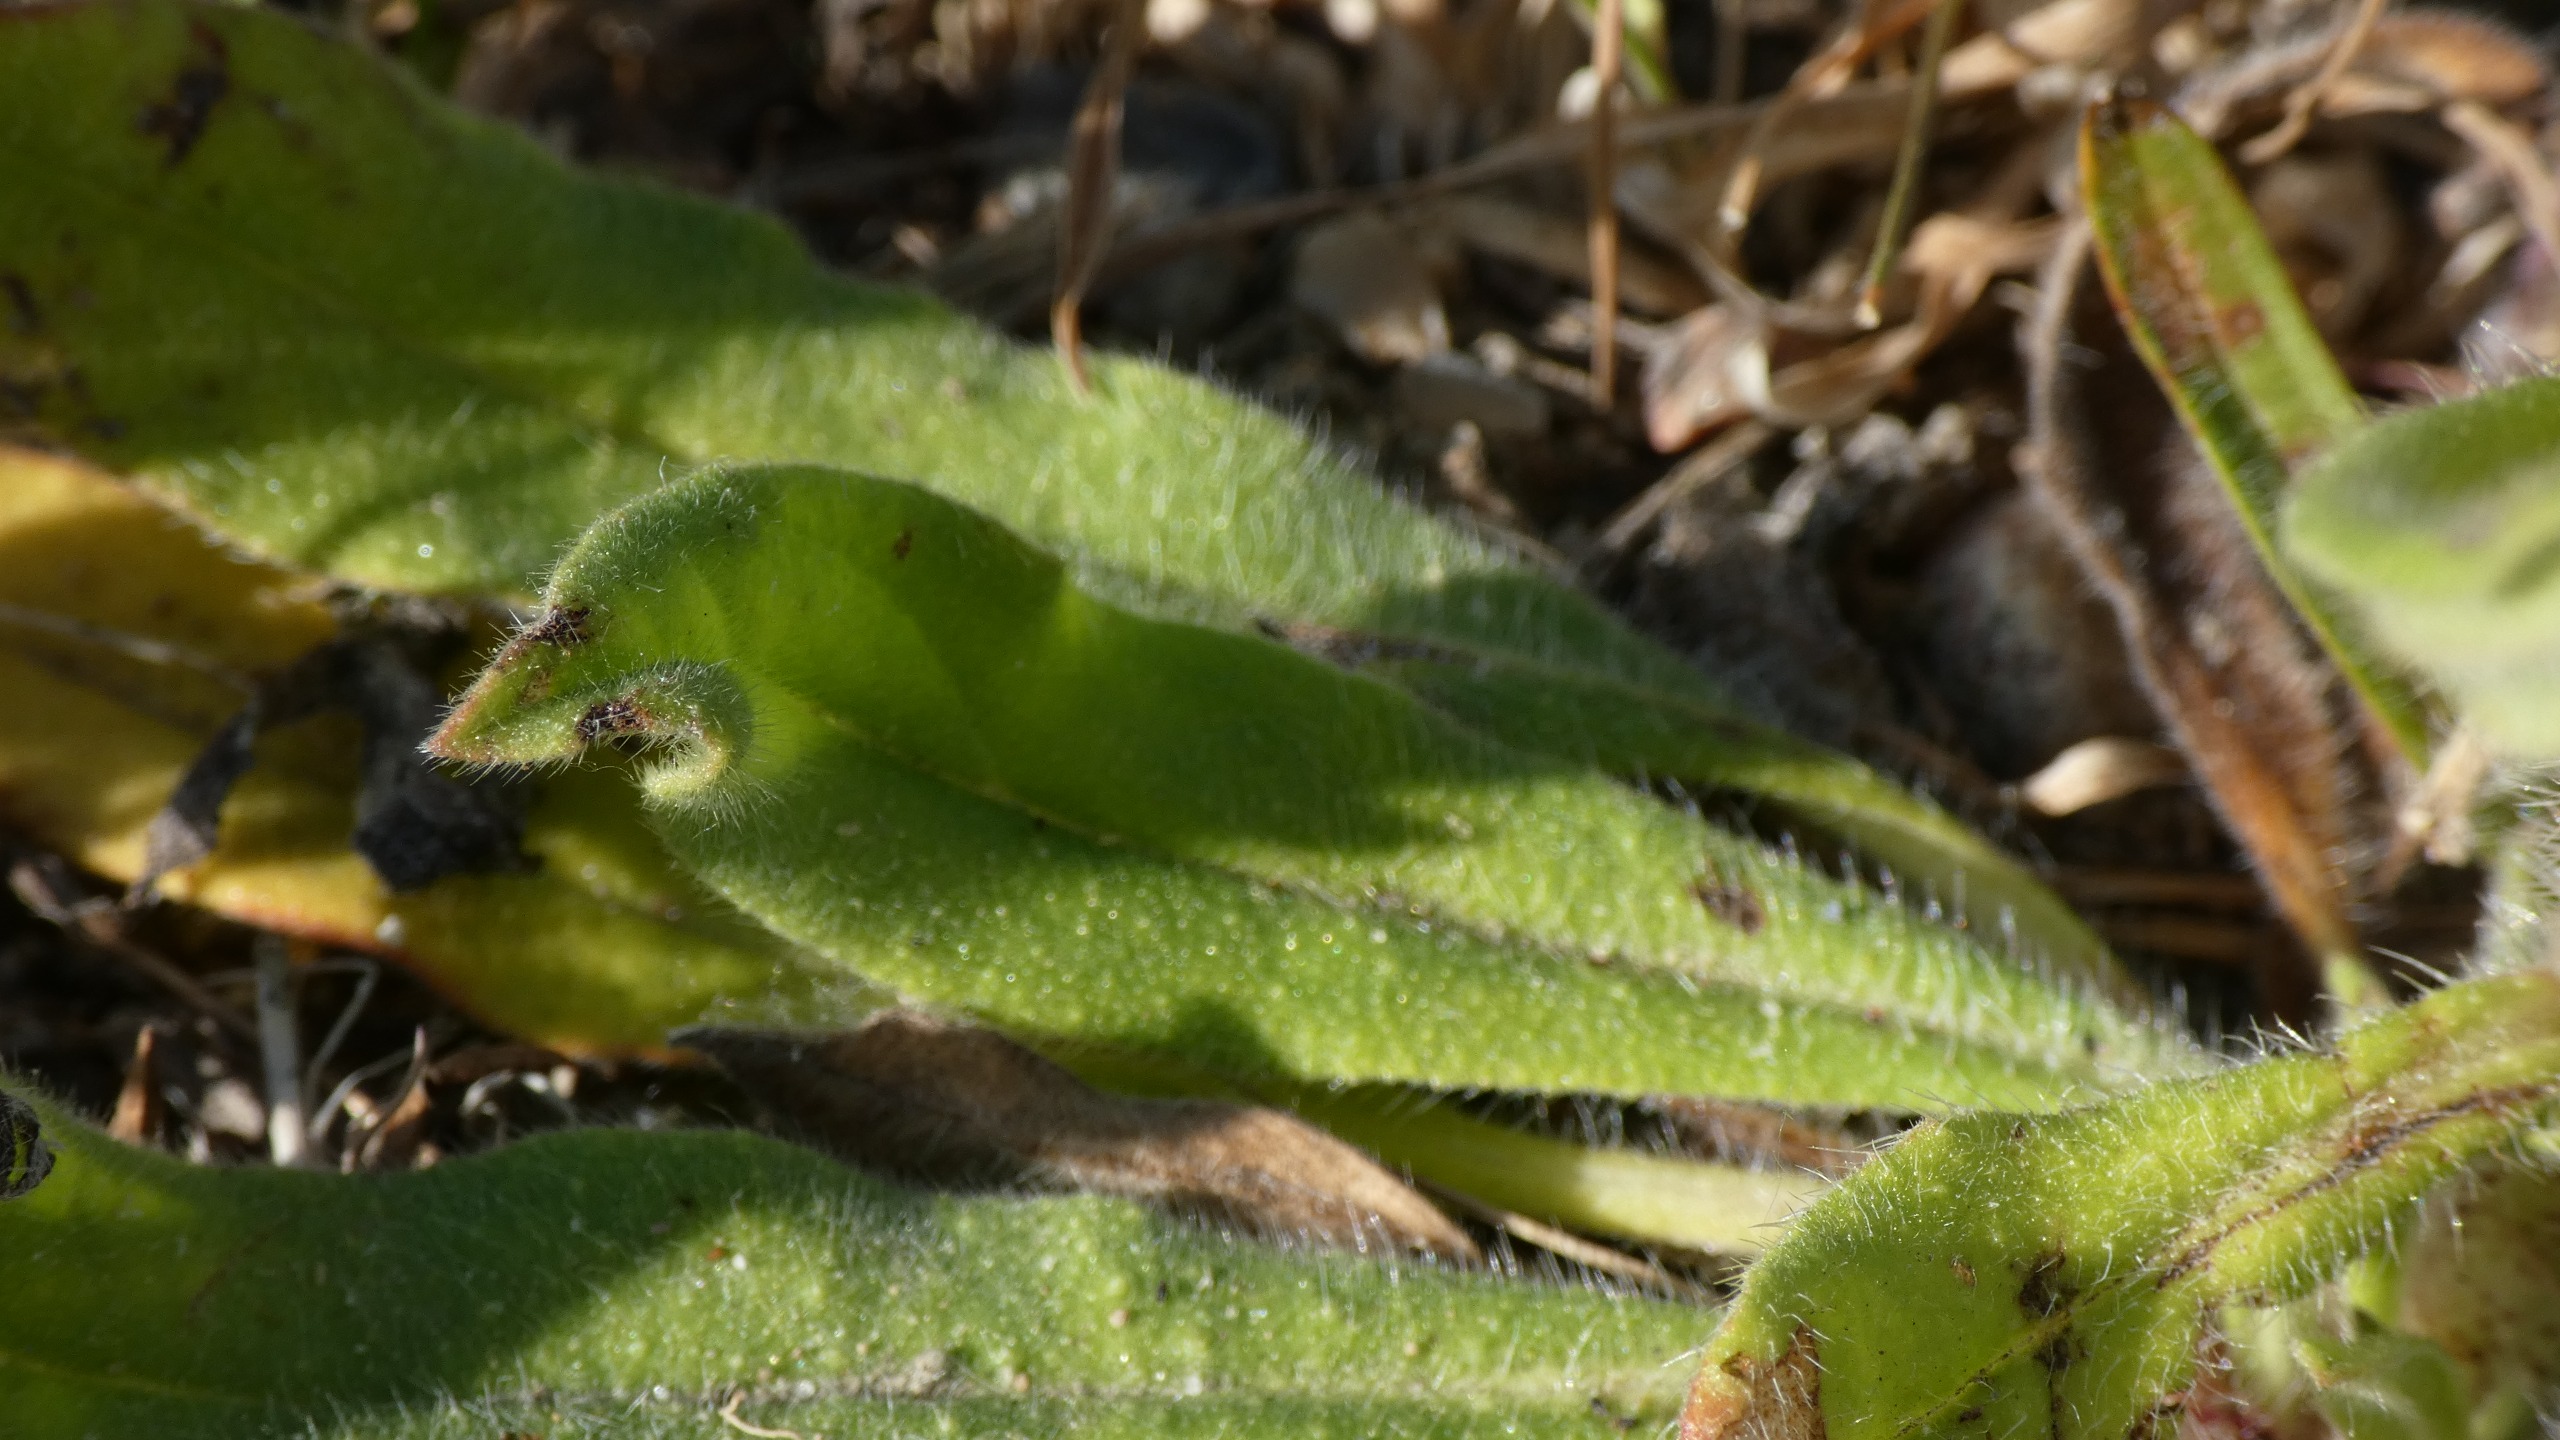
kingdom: Plantae
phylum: Tracheophyta
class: Magnoliopsida
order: Boraginales
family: Boraginaceae
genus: Echium
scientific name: Echium vulgare
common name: Slangehoved
